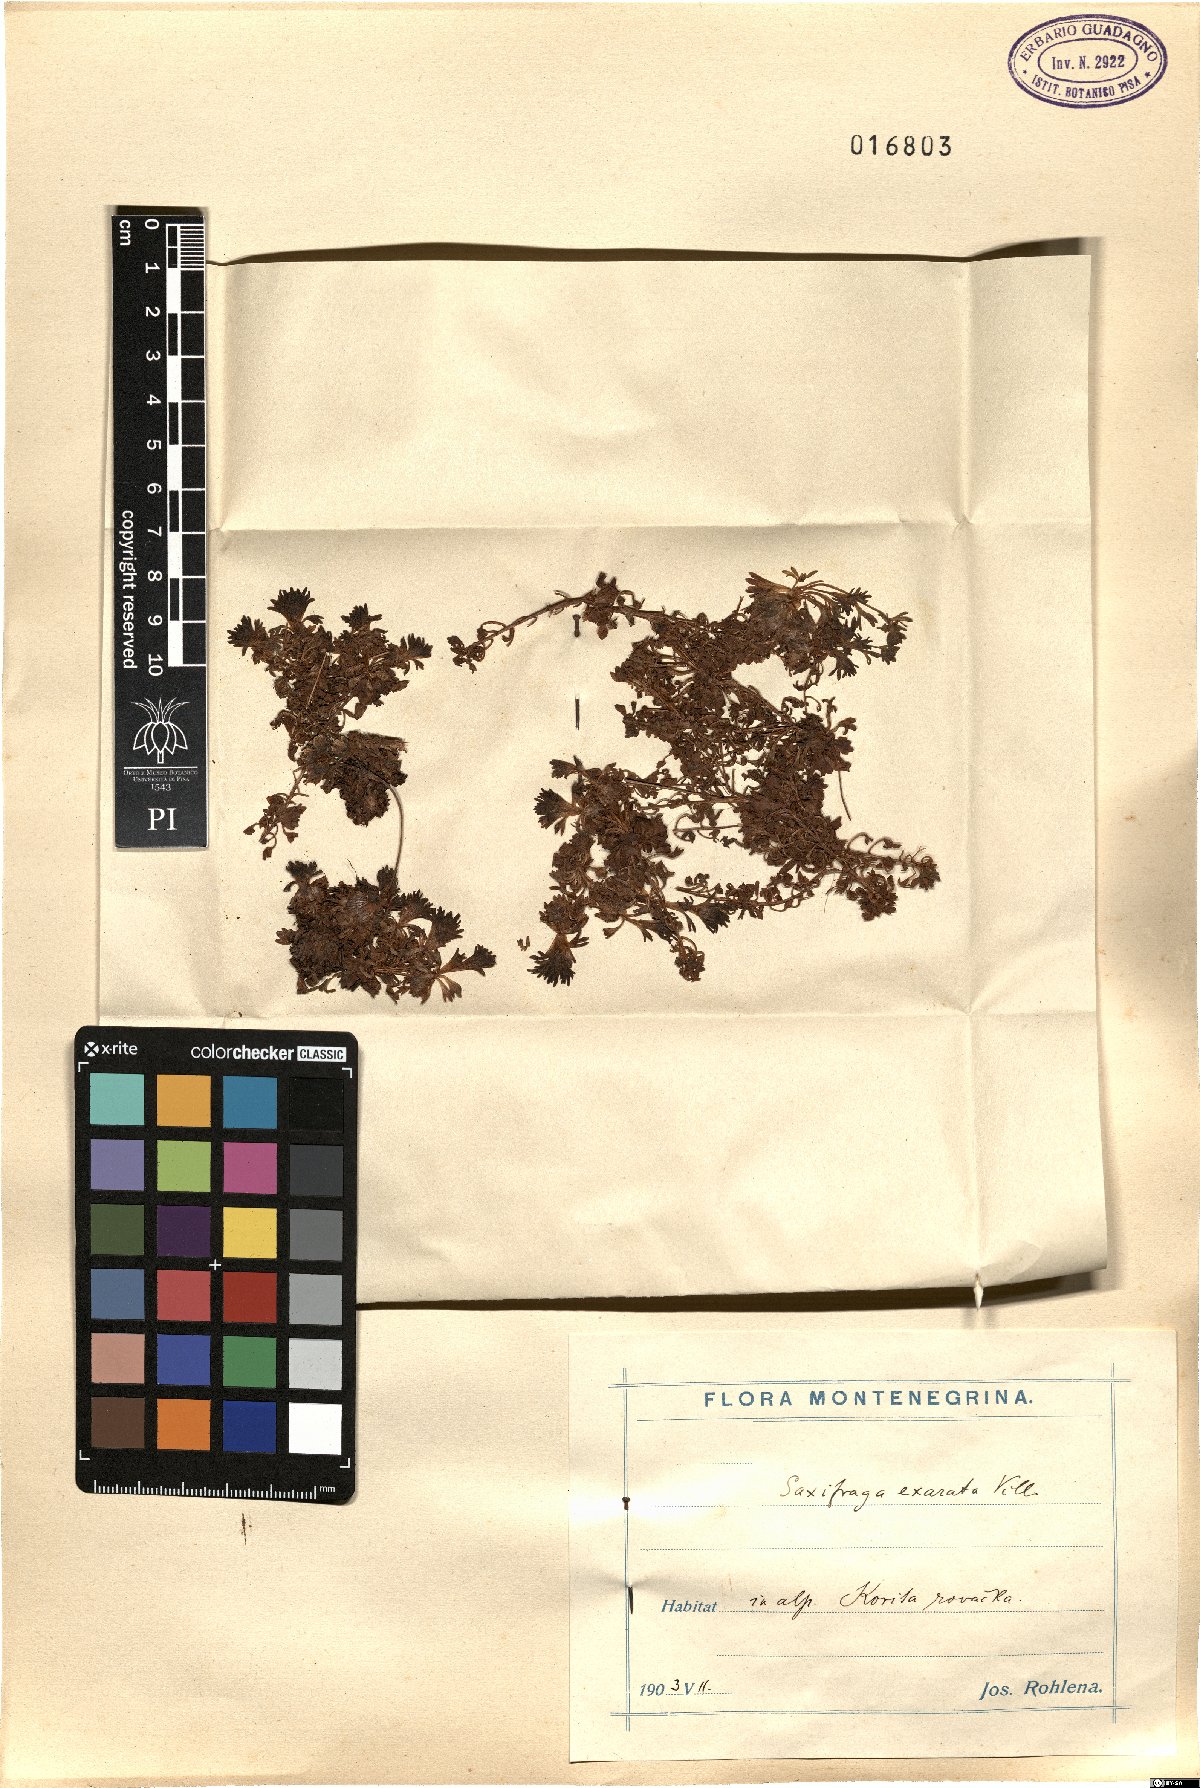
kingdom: Plantae
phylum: Tracheophyta
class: Magnoliopsida
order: Saxifragales
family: Saxifragaceae
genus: Saxifraga
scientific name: Saxifraga exarata
